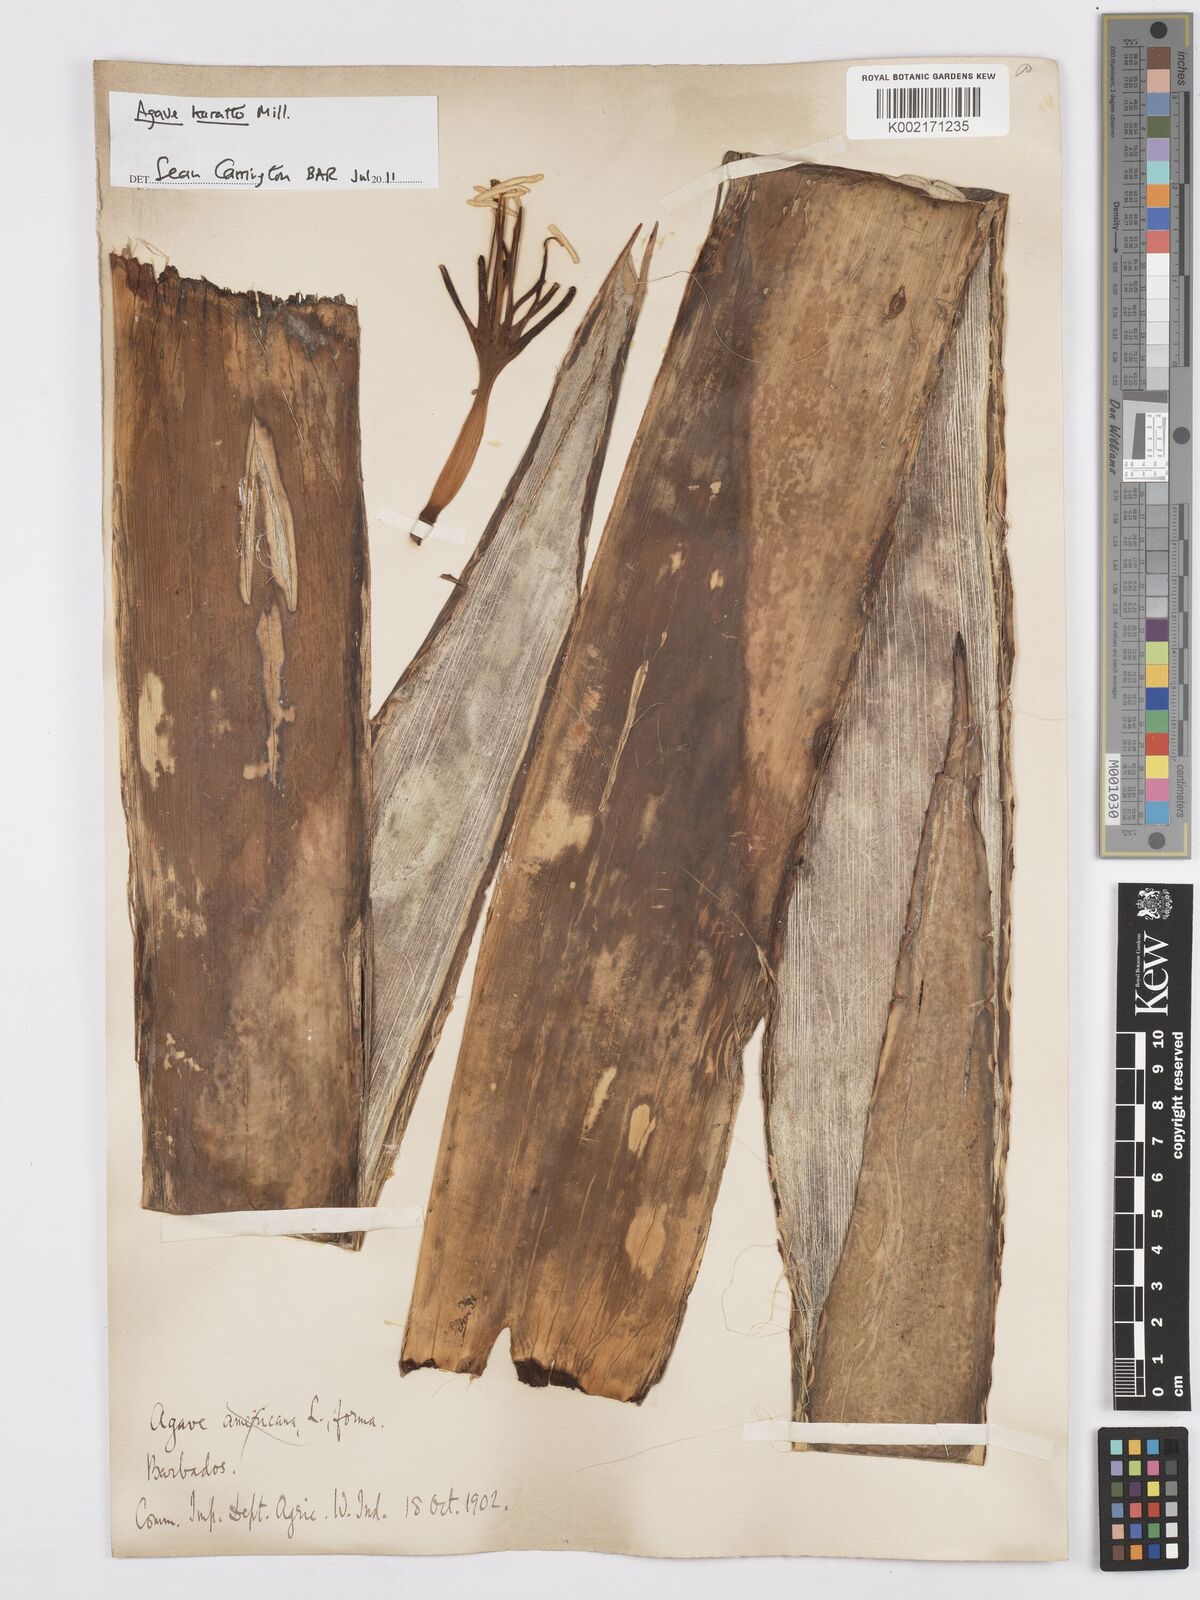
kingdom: Plantae
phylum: Tracheophyta
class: Liliopsida
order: Asparagales
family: Asparagaceae
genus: Agave
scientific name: Agave
